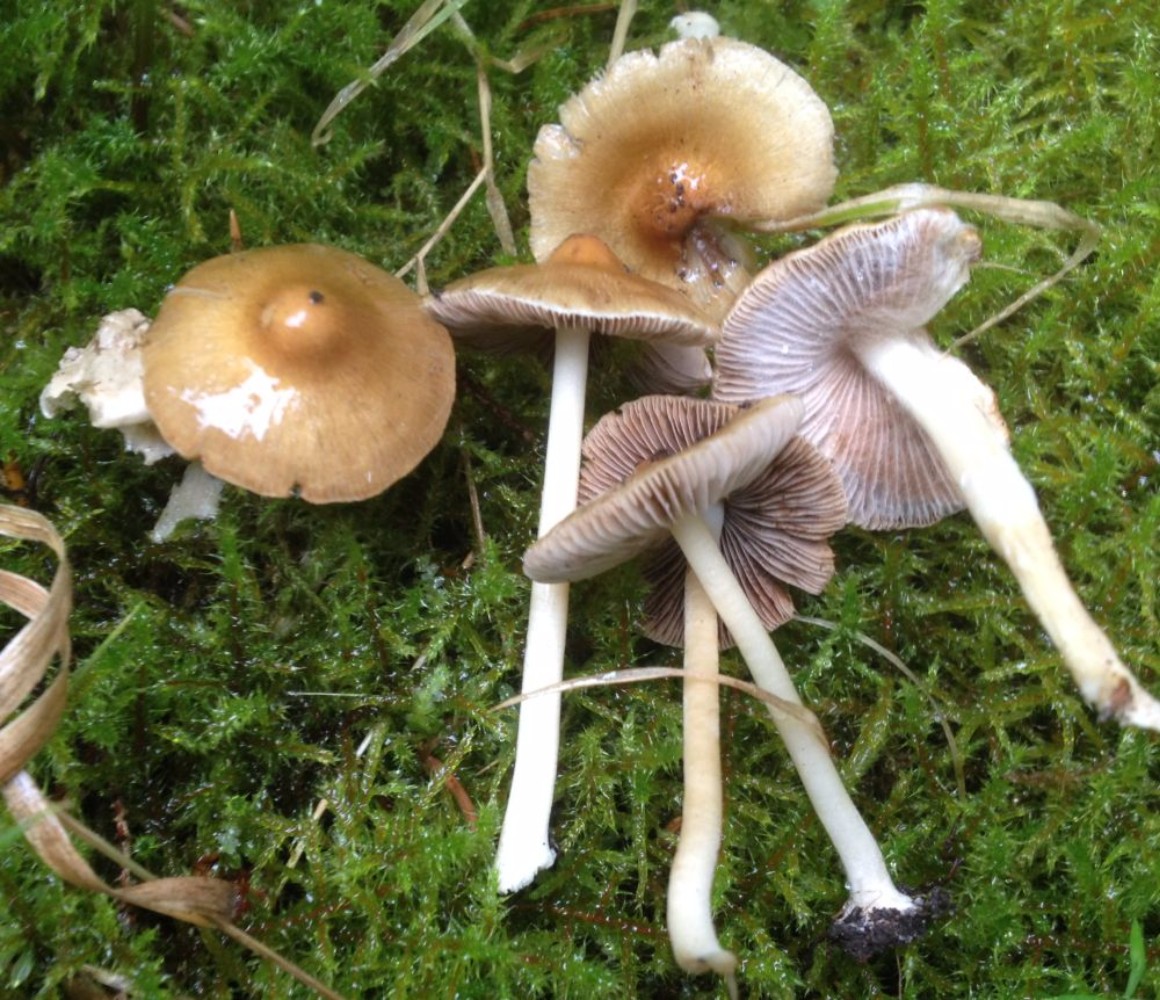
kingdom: Fungi
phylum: Basidiomycota
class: Agaricomycetes
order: Agaricales
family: Inocybaceae
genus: Inocybe
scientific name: Inocybe mixtilis
